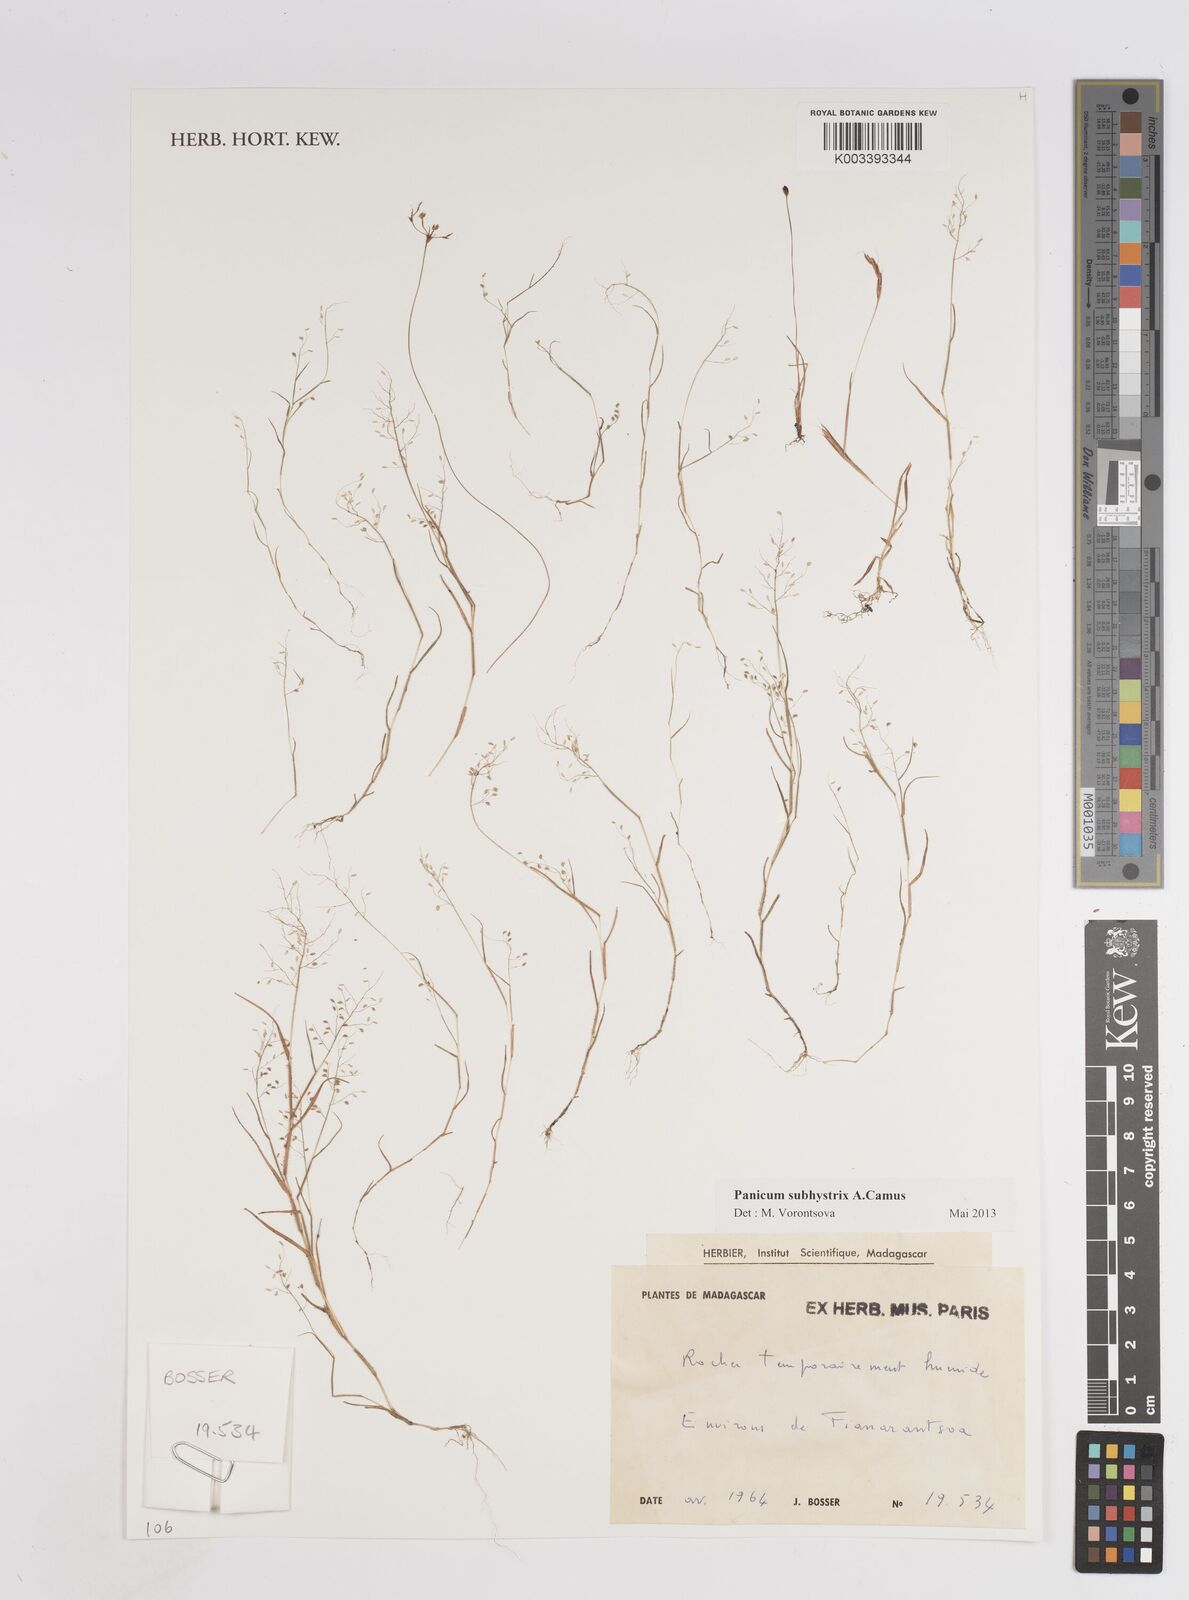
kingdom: Plantae
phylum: Tracheophyta
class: Liliopsida
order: Poales
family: Poaceae
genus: Panicum
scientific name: Panicum subhystrix
